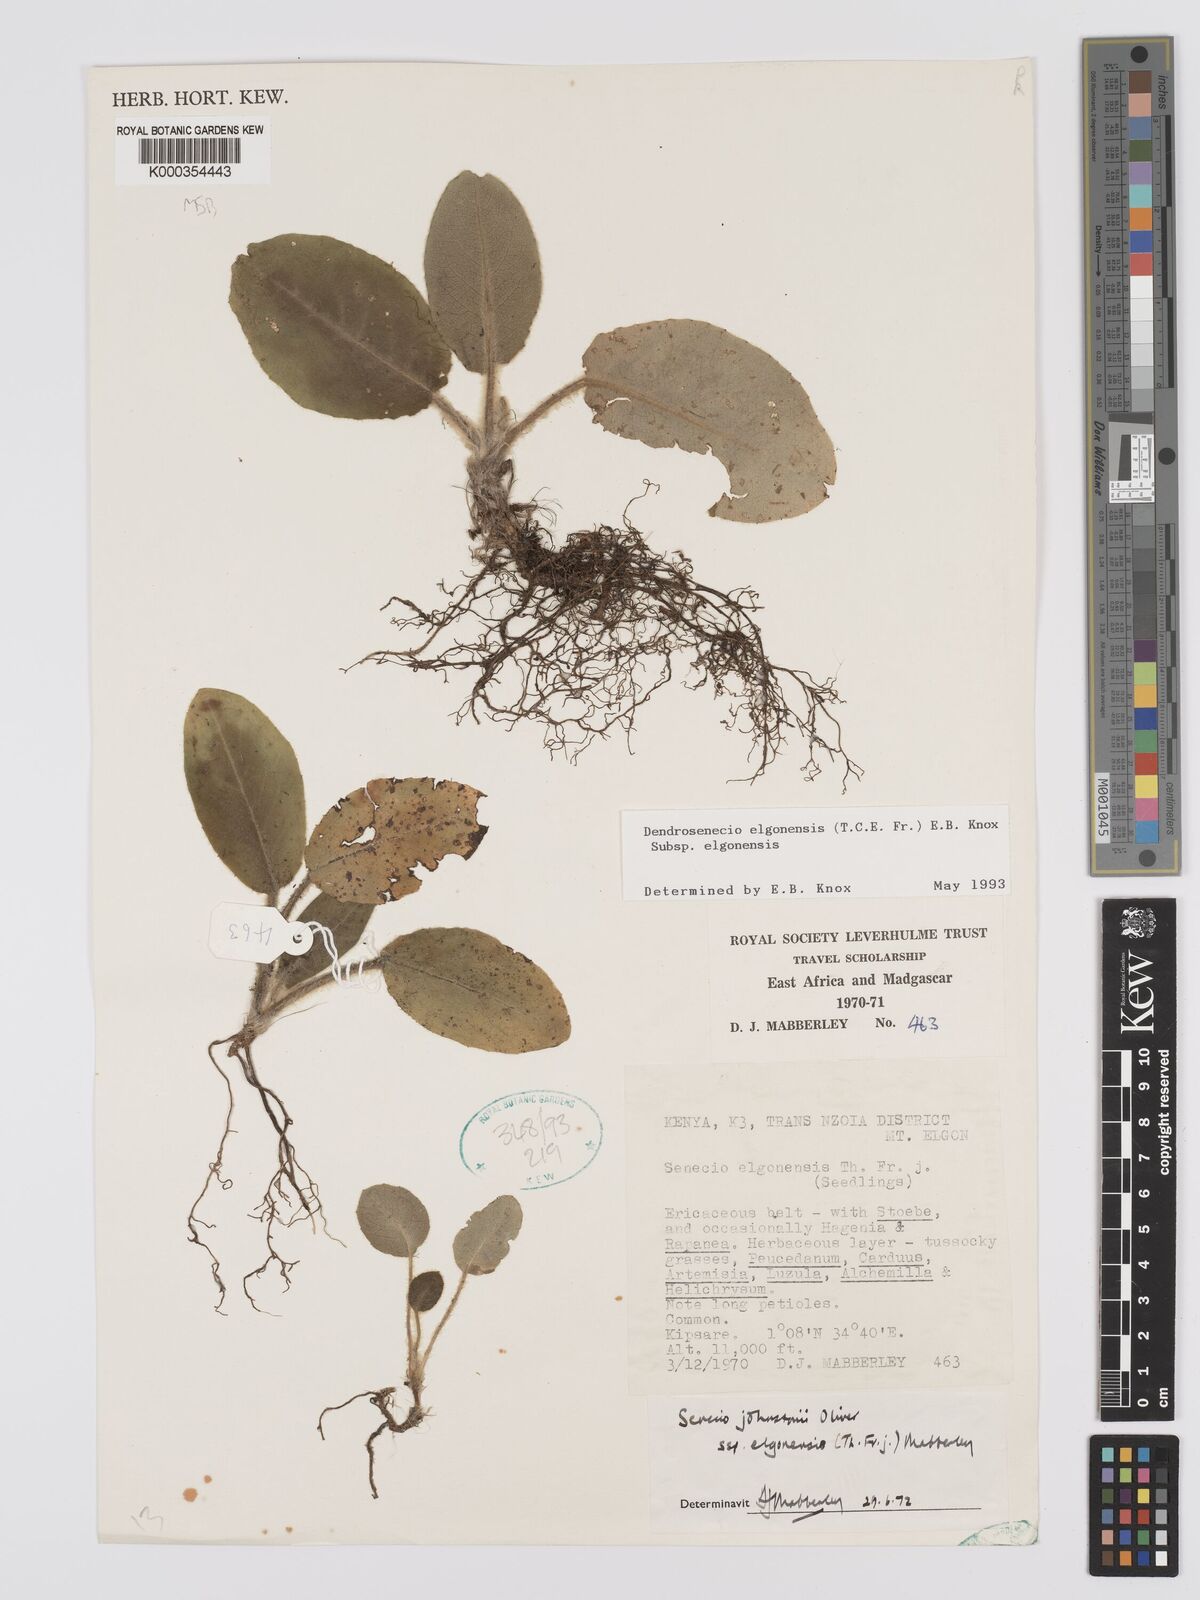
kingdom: Plantae
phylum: Tracheophyta
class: Magnoliopsida
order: Asterales
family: Asteraceae
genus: Dendrosenecio
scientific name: Dendrosenecio elgonensis
